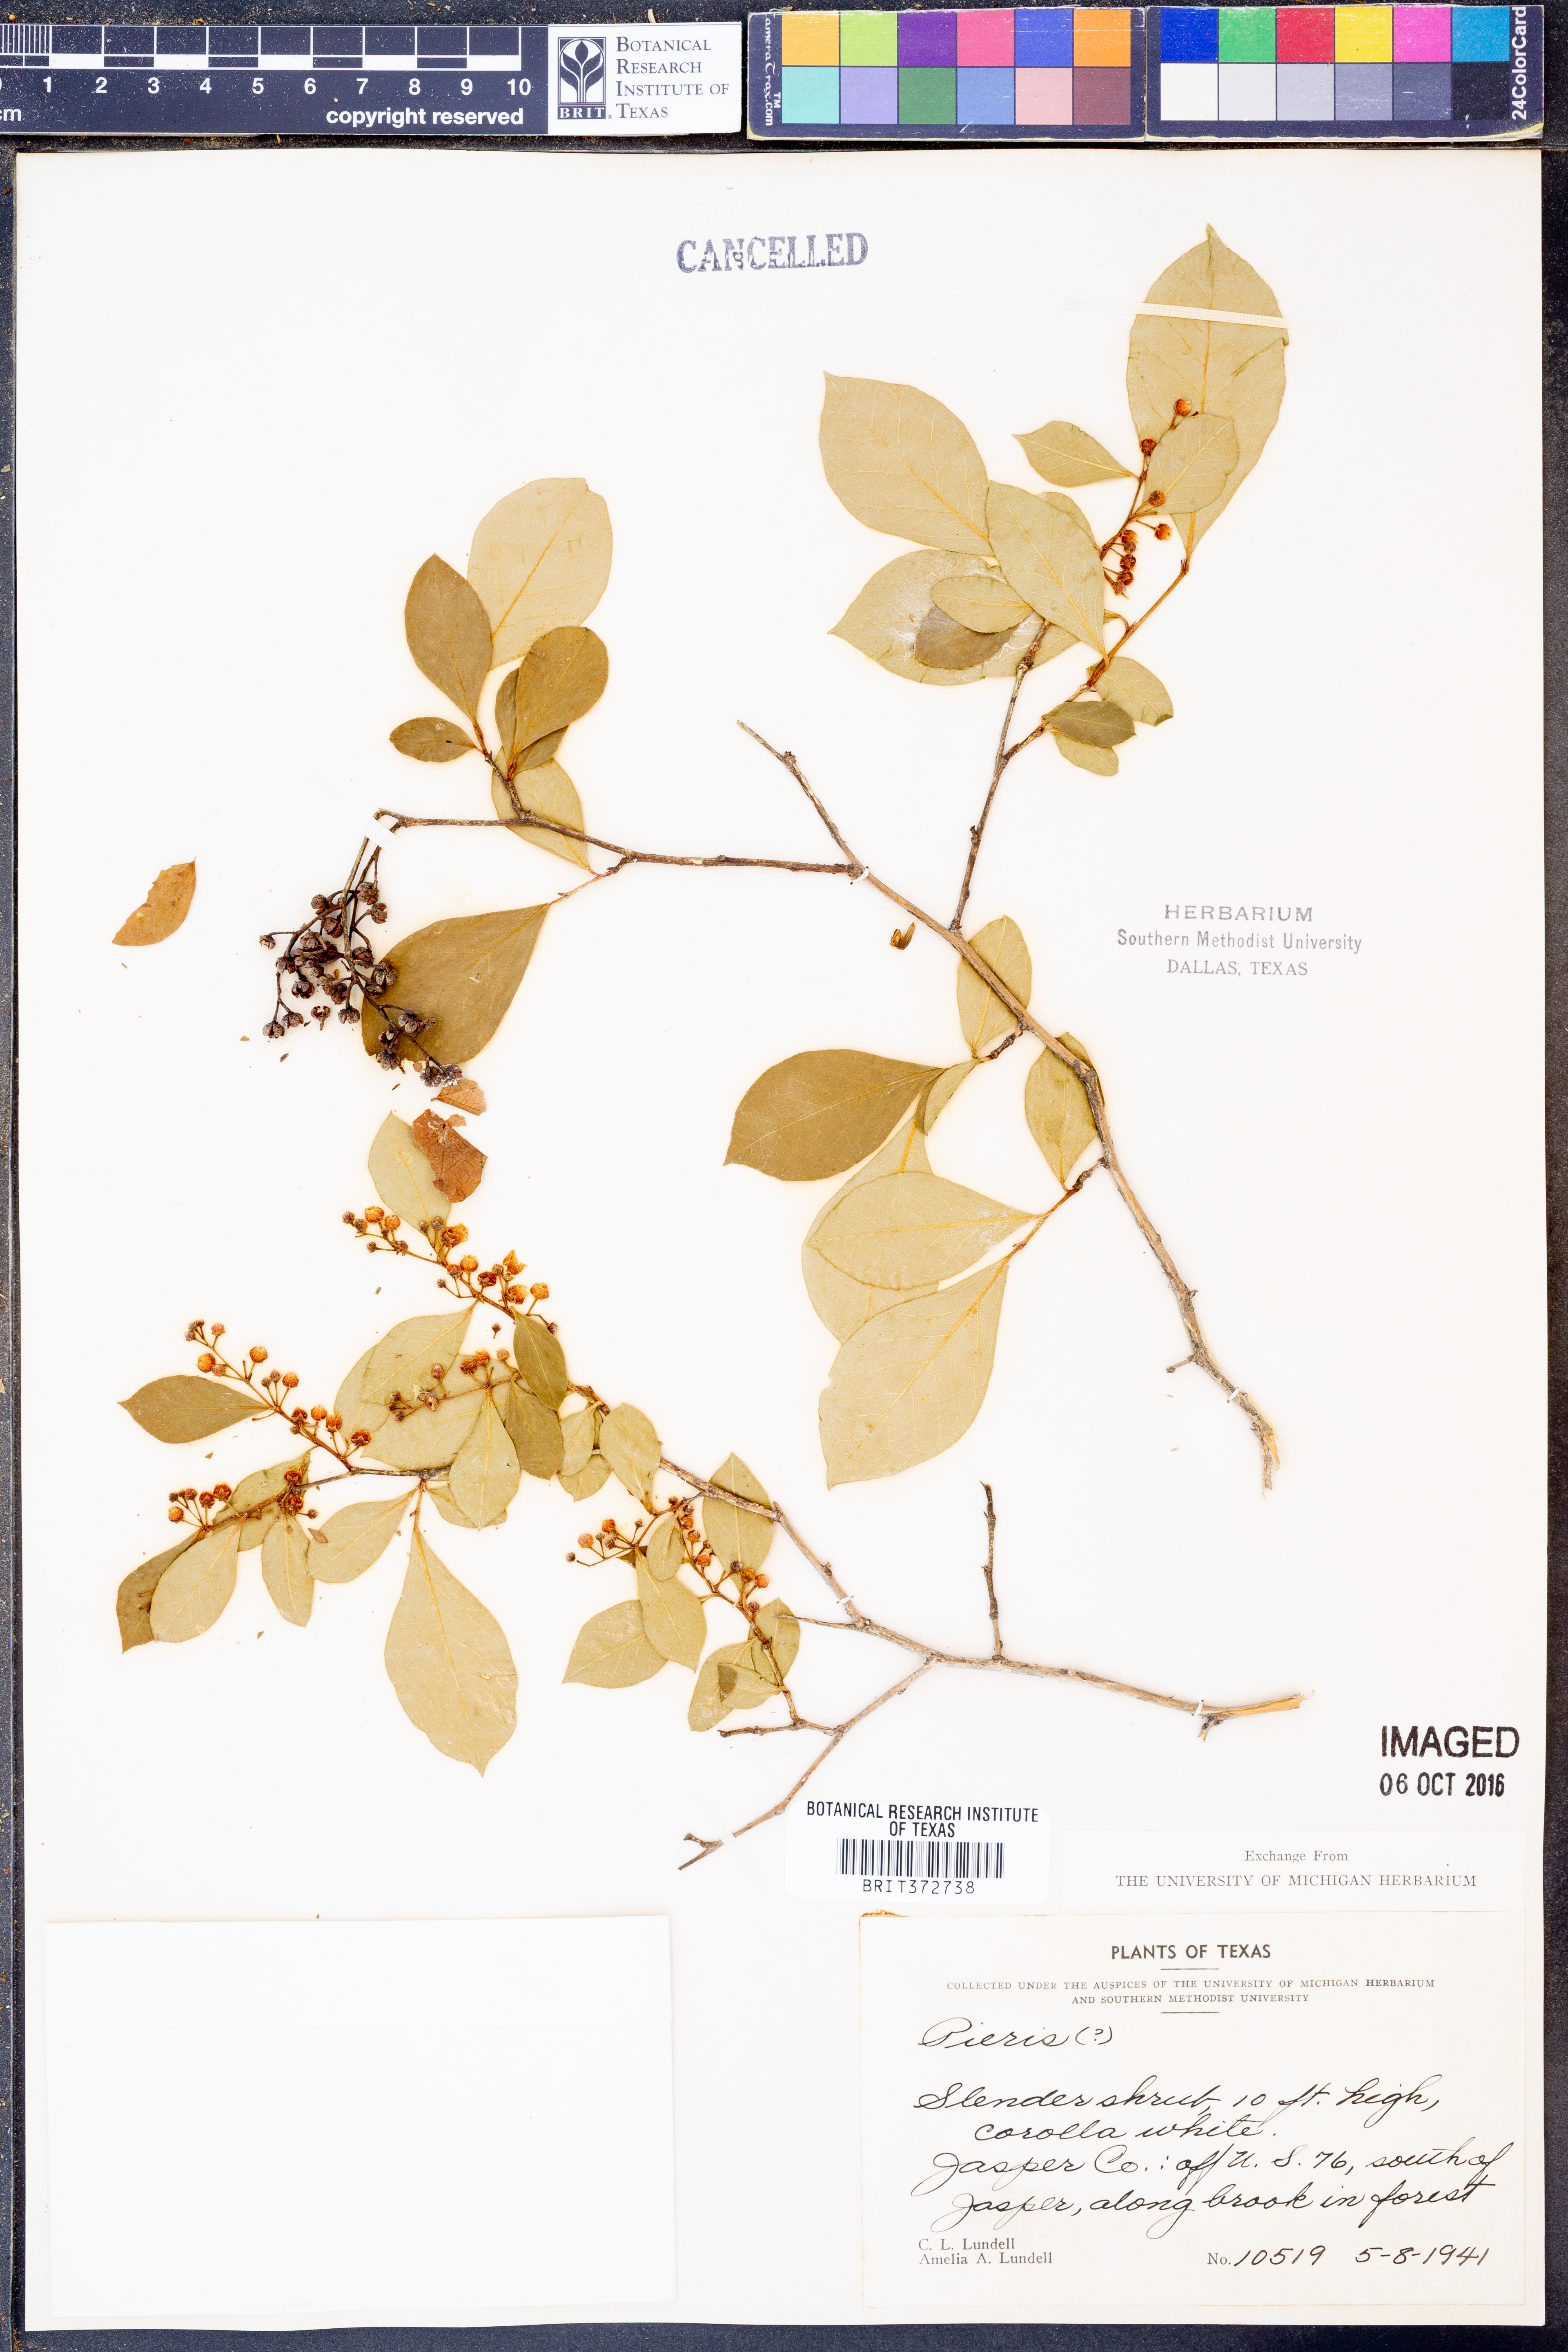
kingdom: Plantae
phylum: Tracheophyta
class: Magnoliopsida
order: Ericales
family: Ericaceae
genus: Lyonia
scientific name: Lyonia ligustrina
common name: Maleberry
